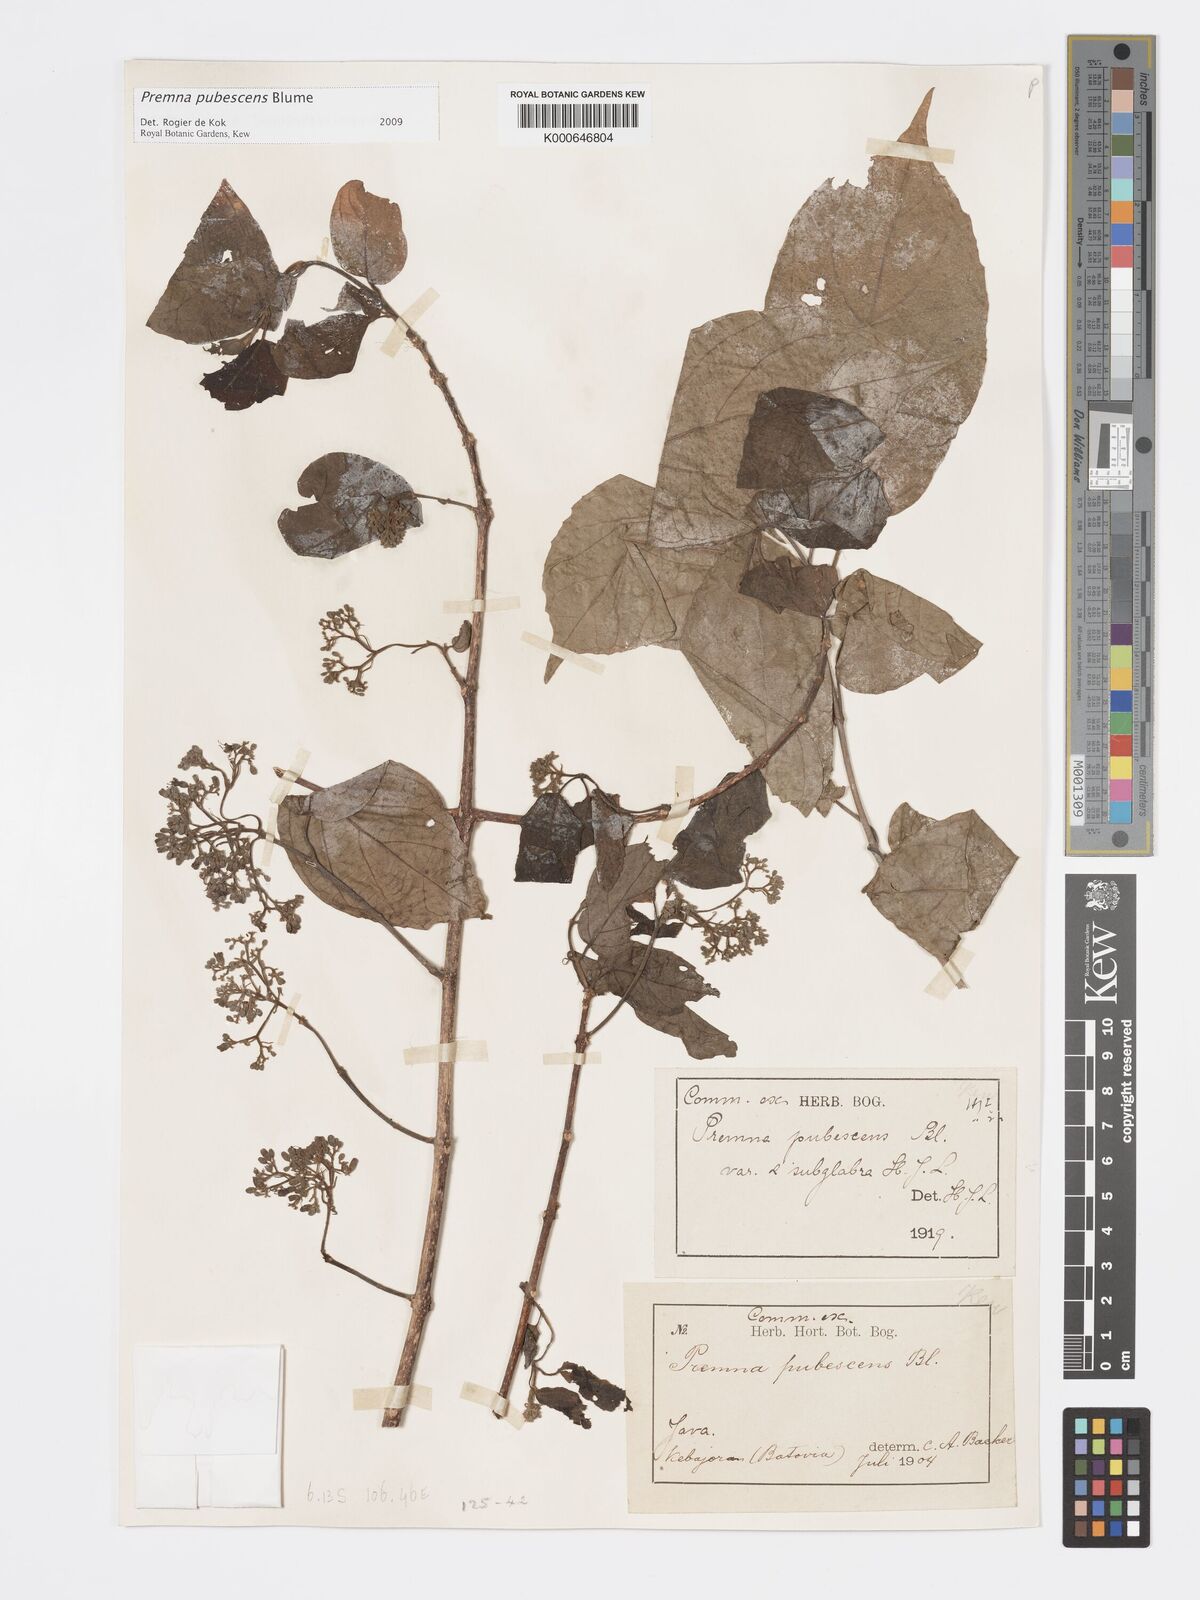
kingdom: Plantae
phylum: Tracheophyta
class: Magnoliopsida
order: Lamiales
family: Lamiaceae
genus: Premna
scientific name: Premna
